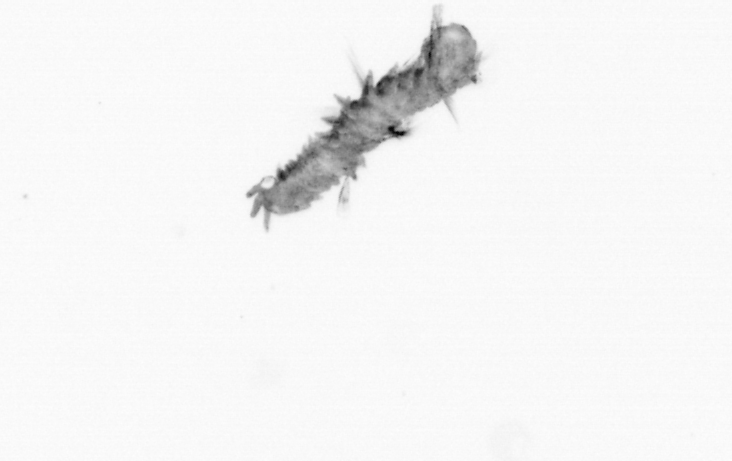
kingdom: Animalia
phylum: Annelida
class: Polychaeta
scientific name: Polychaeta
